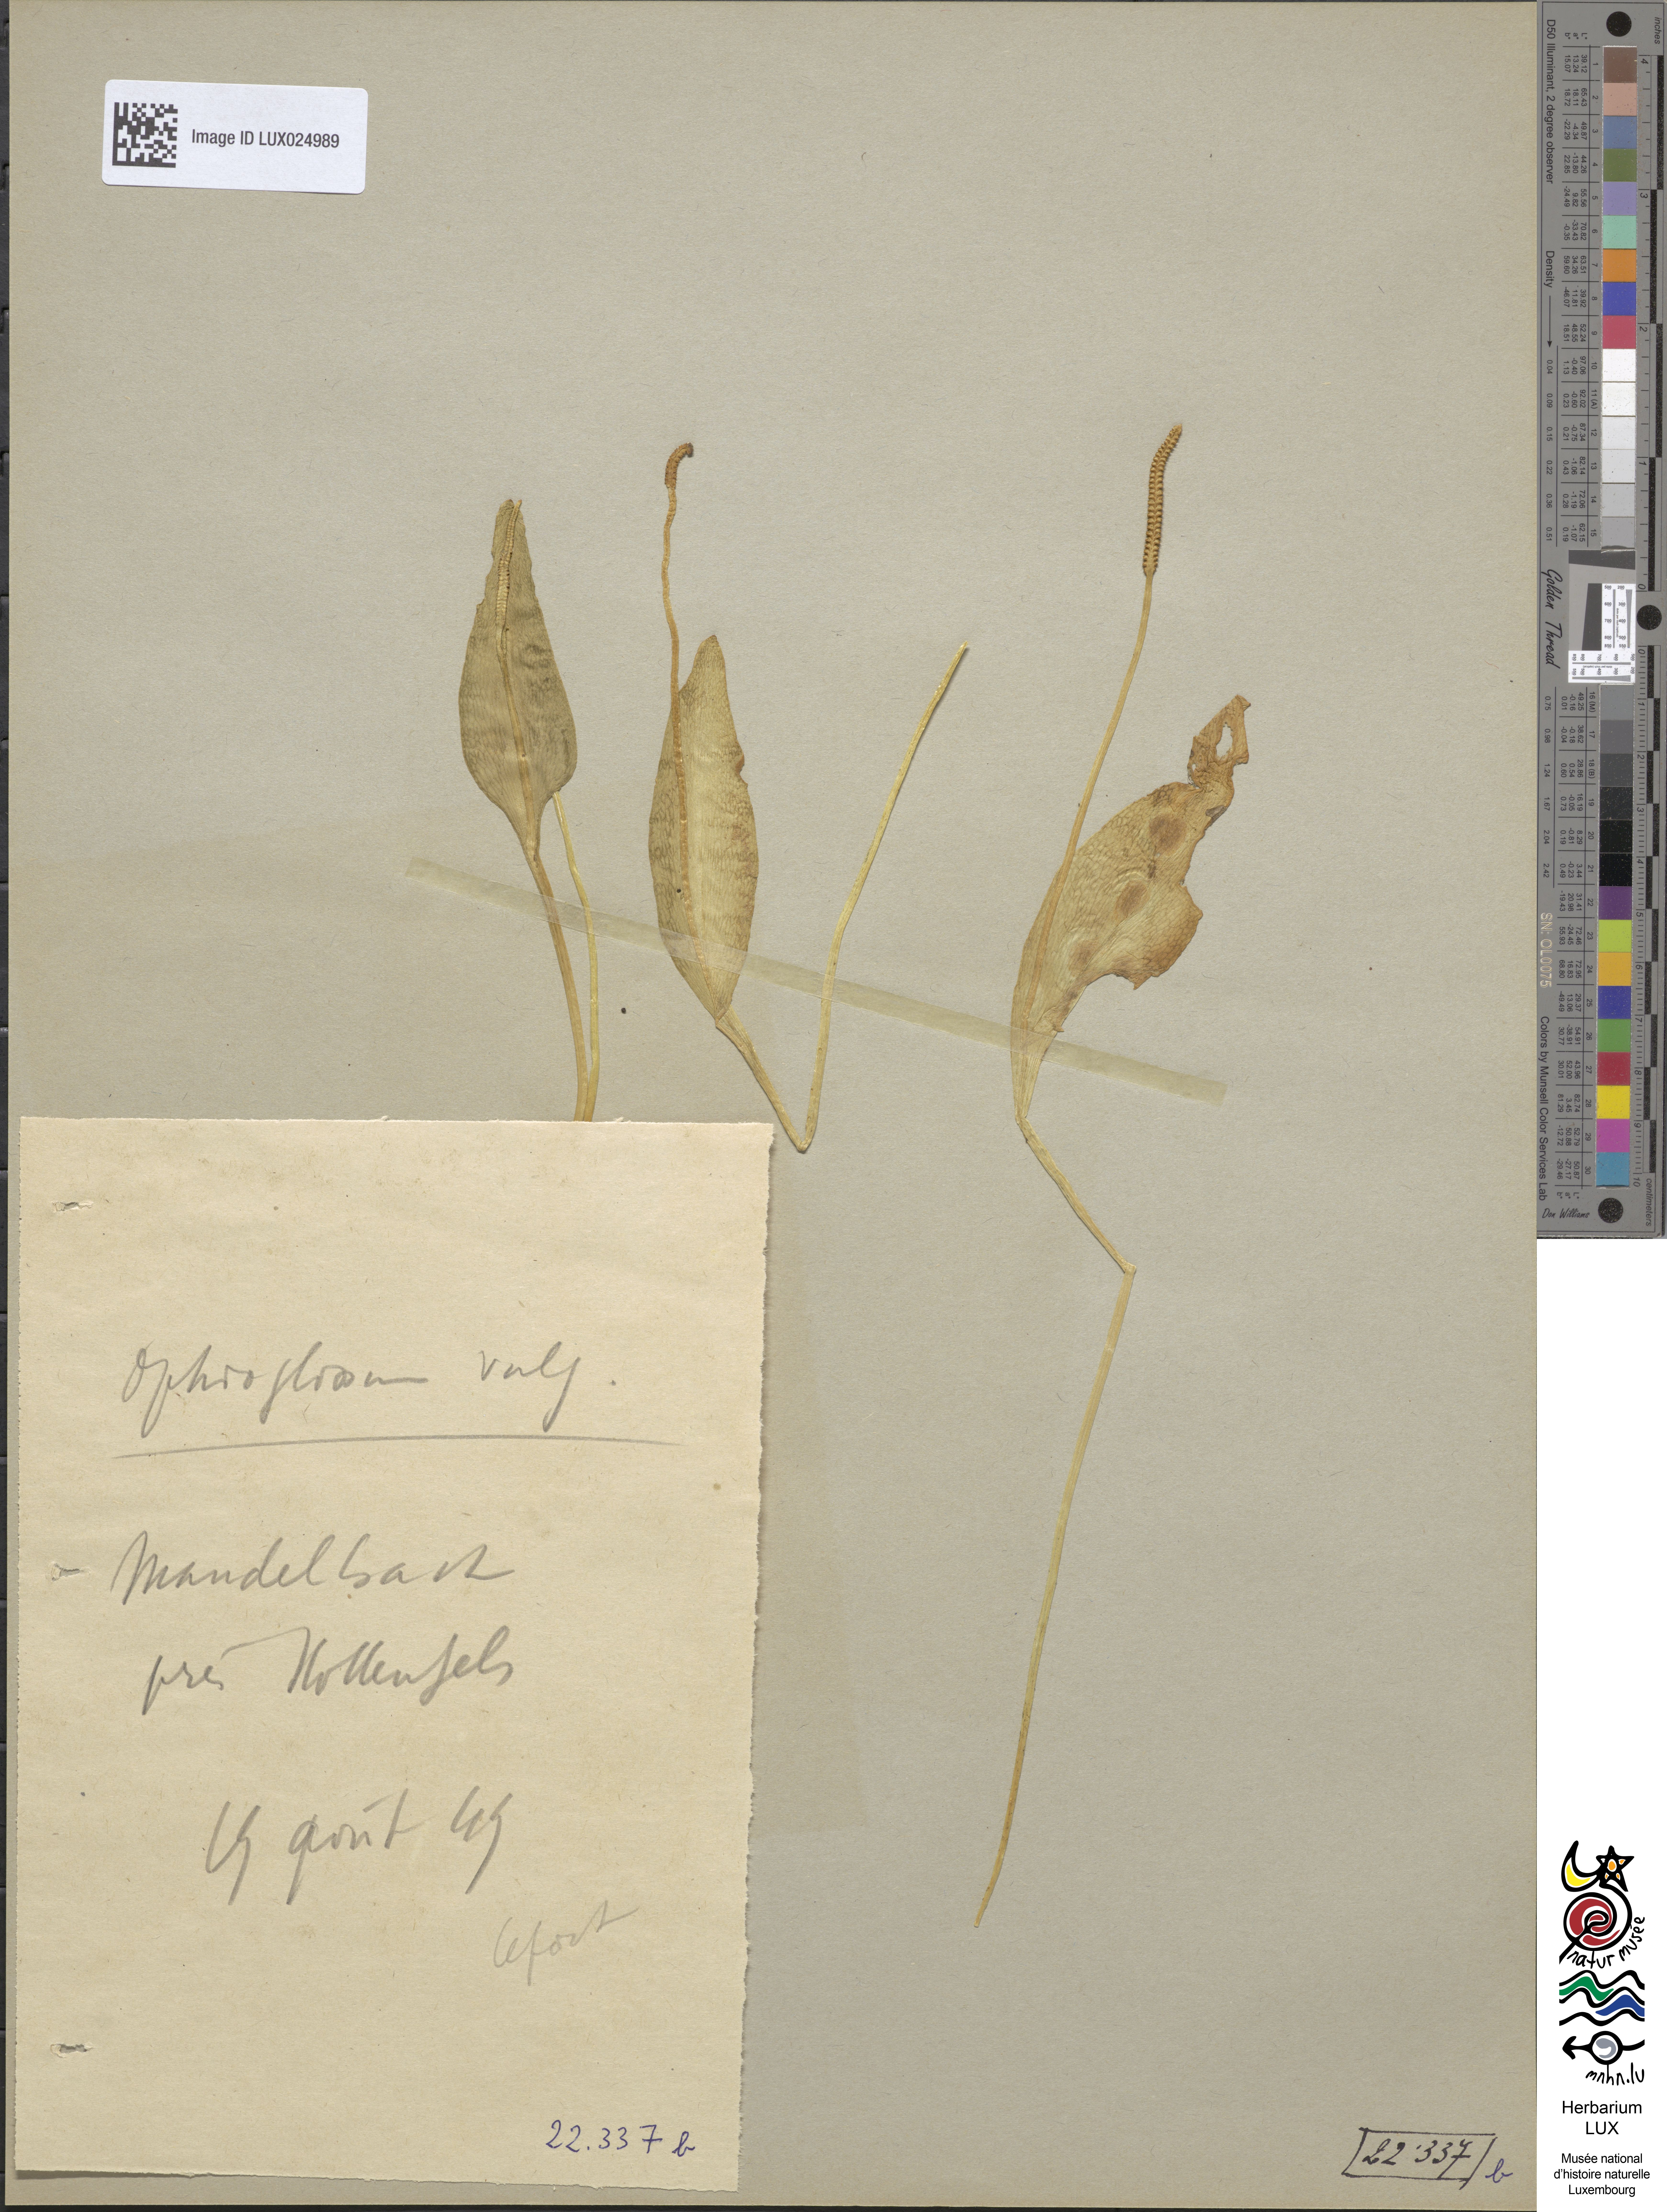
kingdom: Plantae
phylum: Tracheophyta
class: Polypodiopsida
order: Ophioglossales
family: Ophioglossaceae
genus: Ophioglossum
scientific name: Ophioglossum vulgatum
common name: Adder's-tongue
